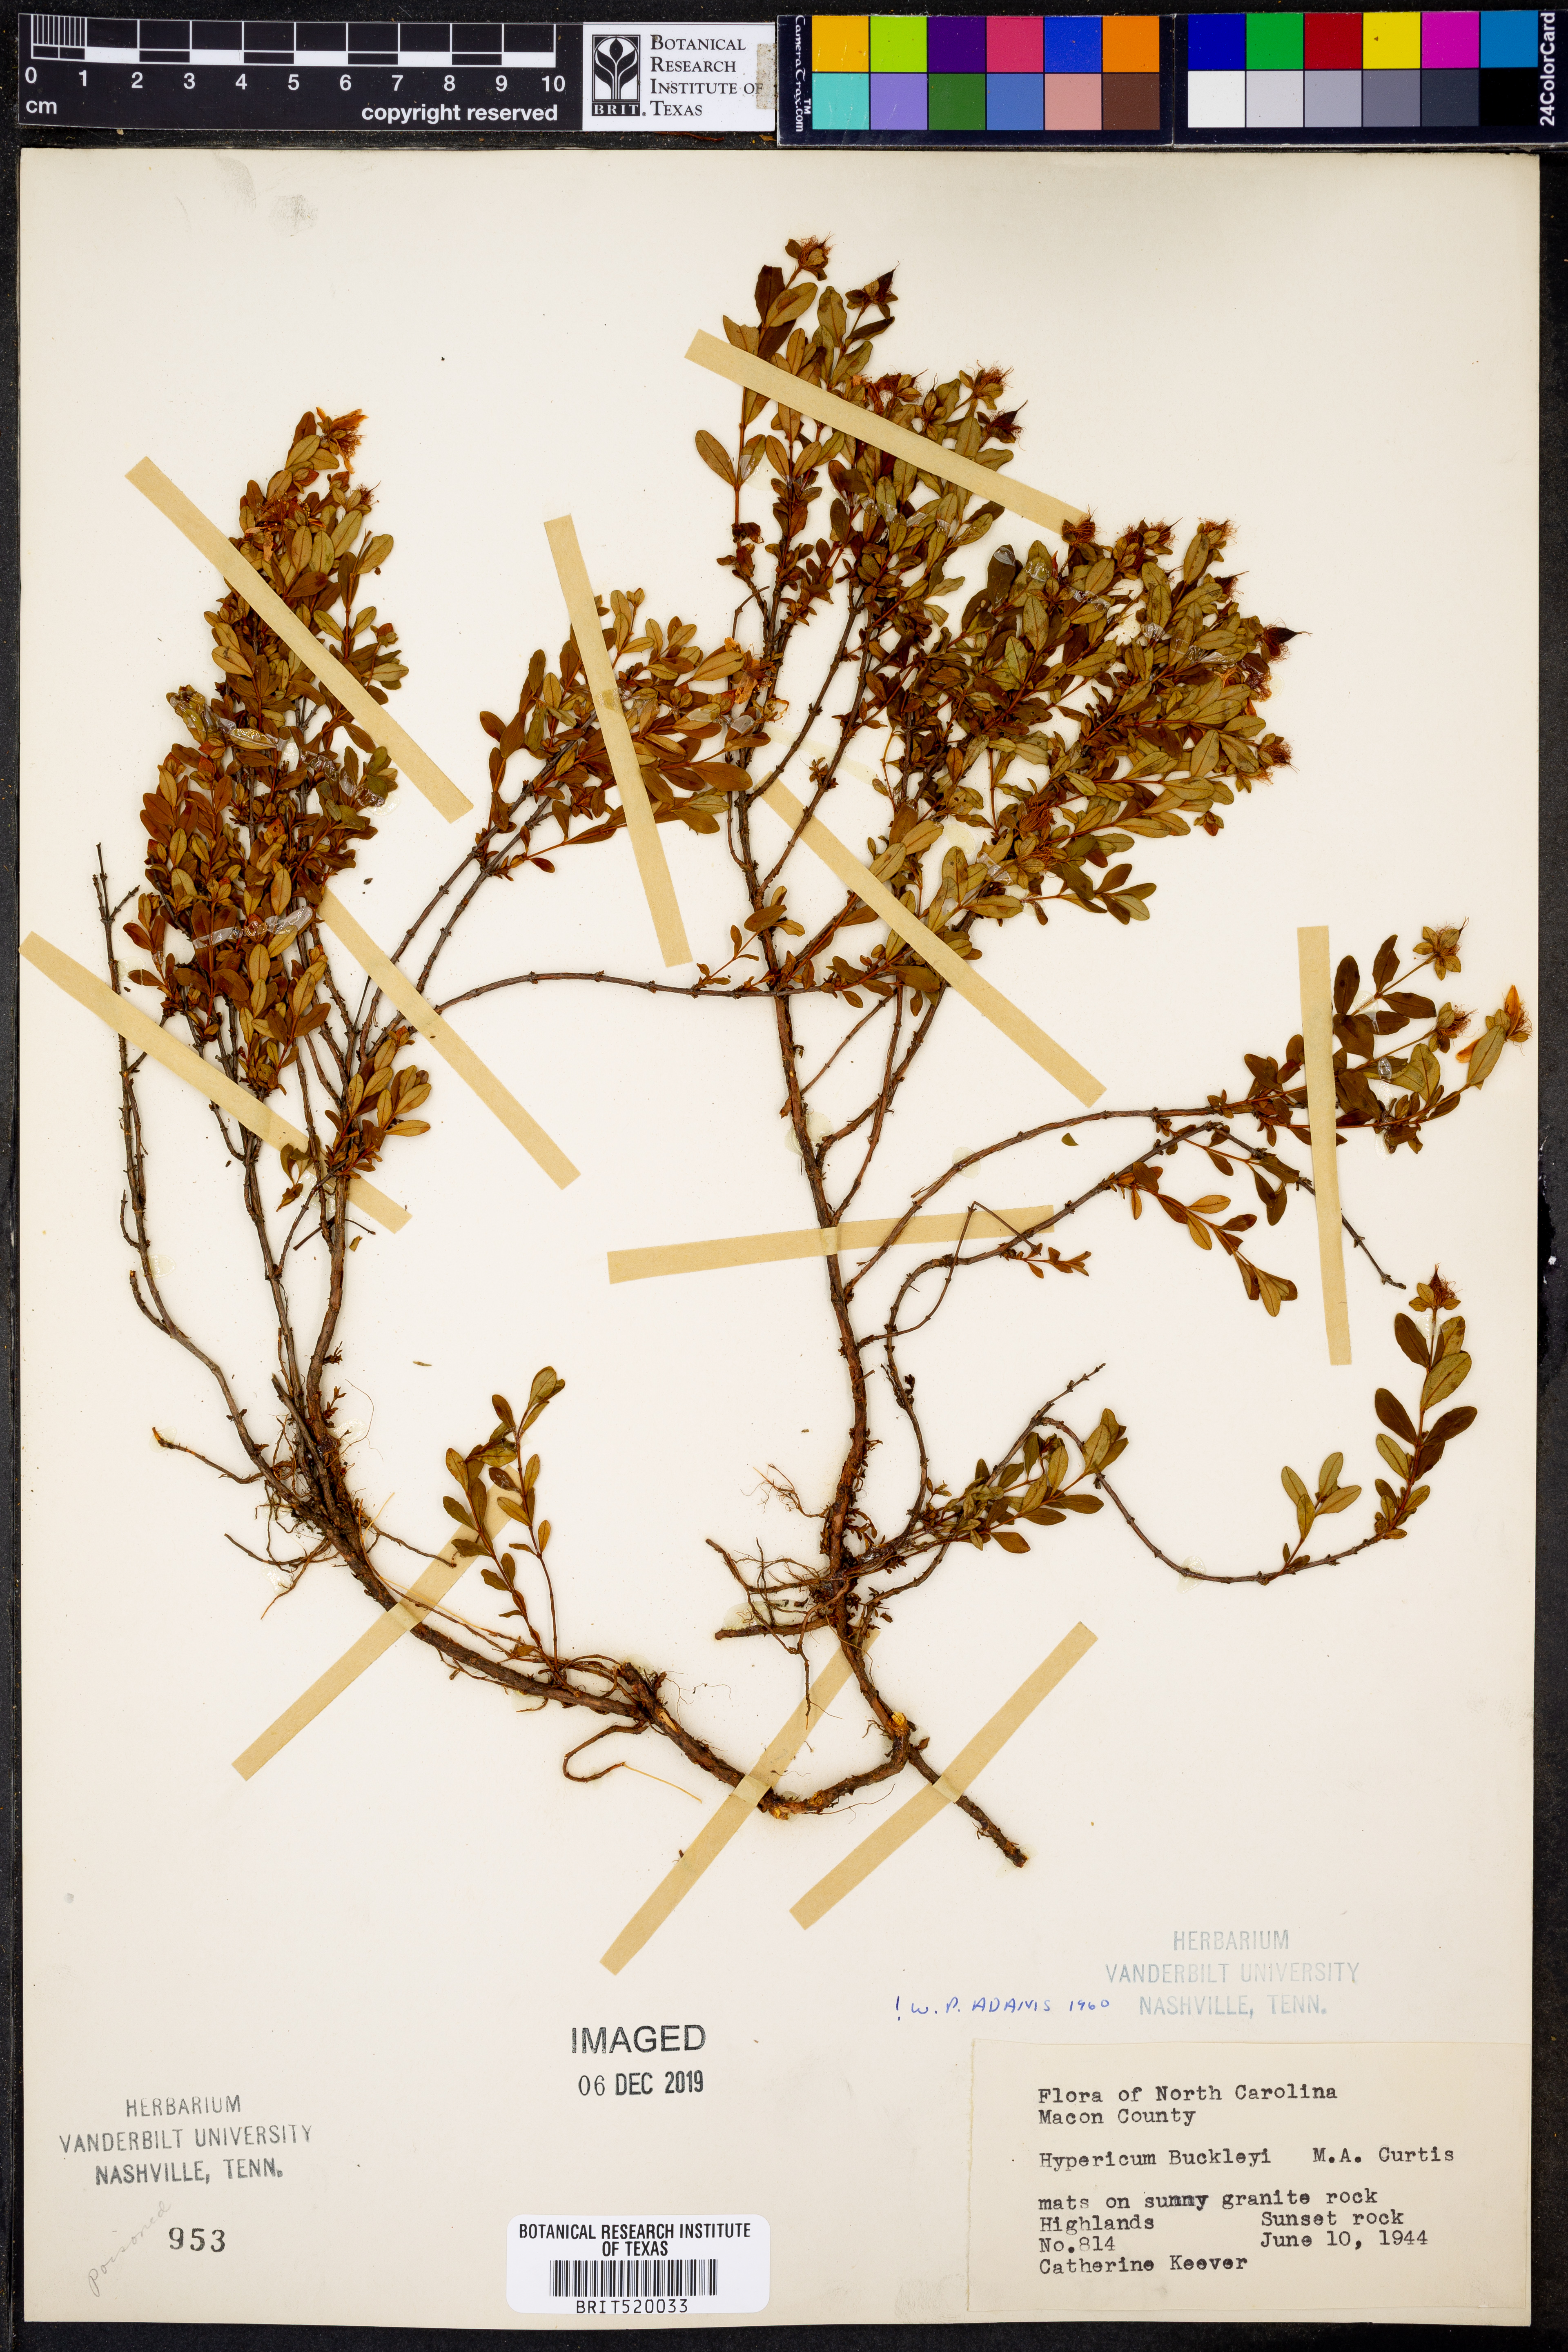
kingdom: Plantae
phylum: Tracheophyta
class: Magnoliopsida
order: Malpighiales
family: Hypericaceae
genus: Hypericum
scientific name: Hypericum buckleyi
